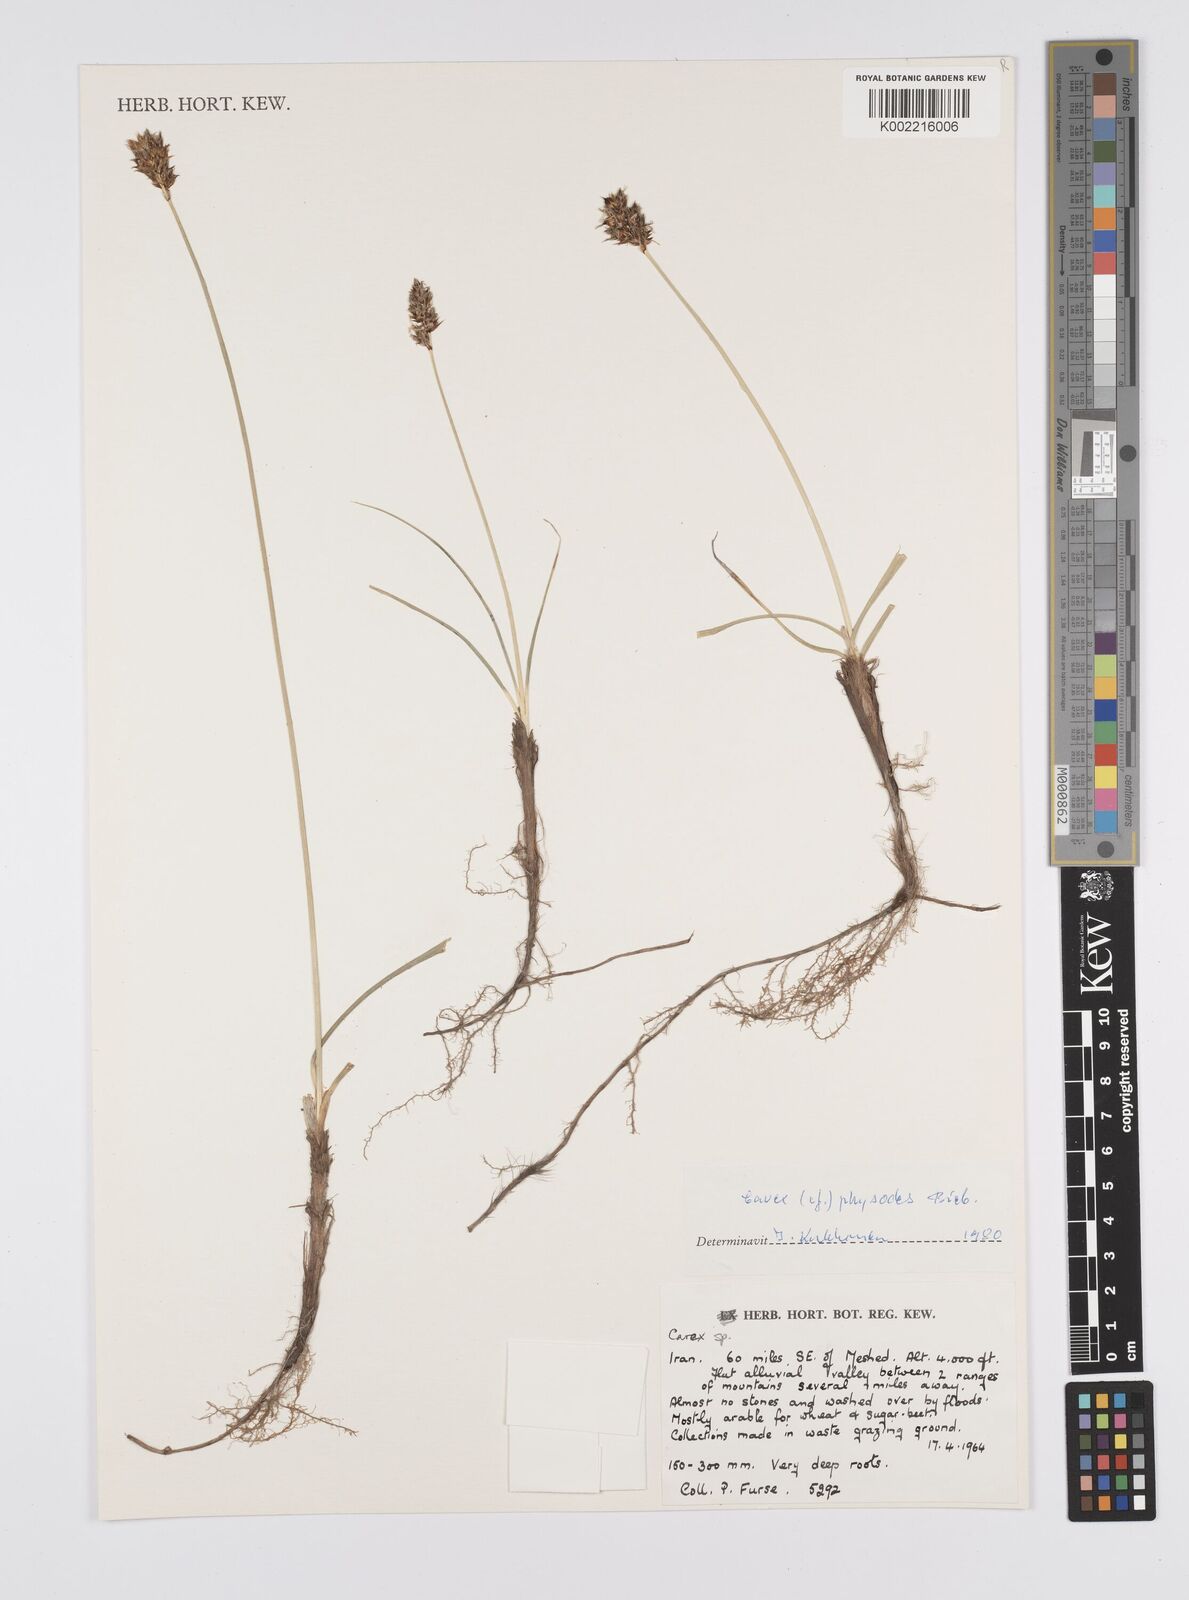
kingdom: Plantae
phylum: Tracheophyta
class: Liliopsida
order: Poales
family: Cyperaceae
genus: Carex
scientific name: Carex physodes
